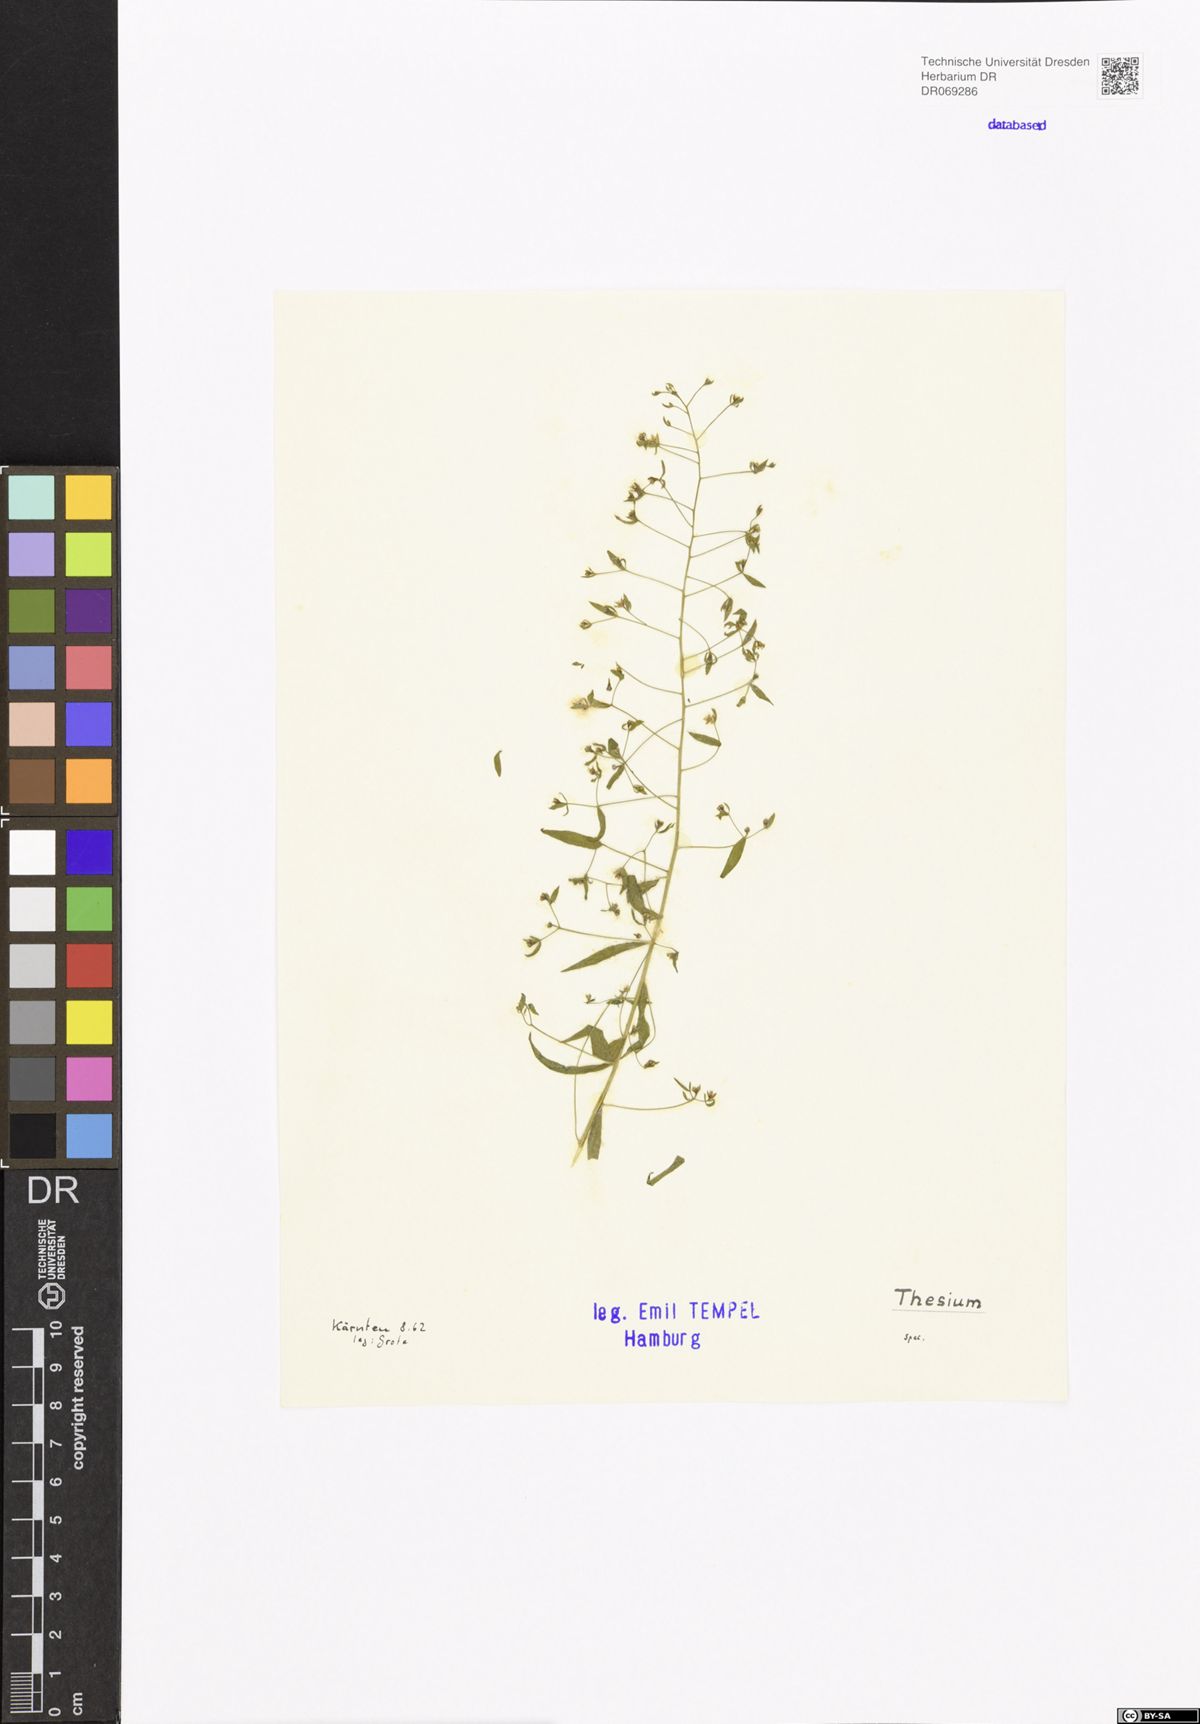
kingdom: Plantae
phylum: Tracheophyta
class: Magnoliopsida
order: Santalales
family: Thesiaceae
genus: Thesium
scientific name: Thesium
